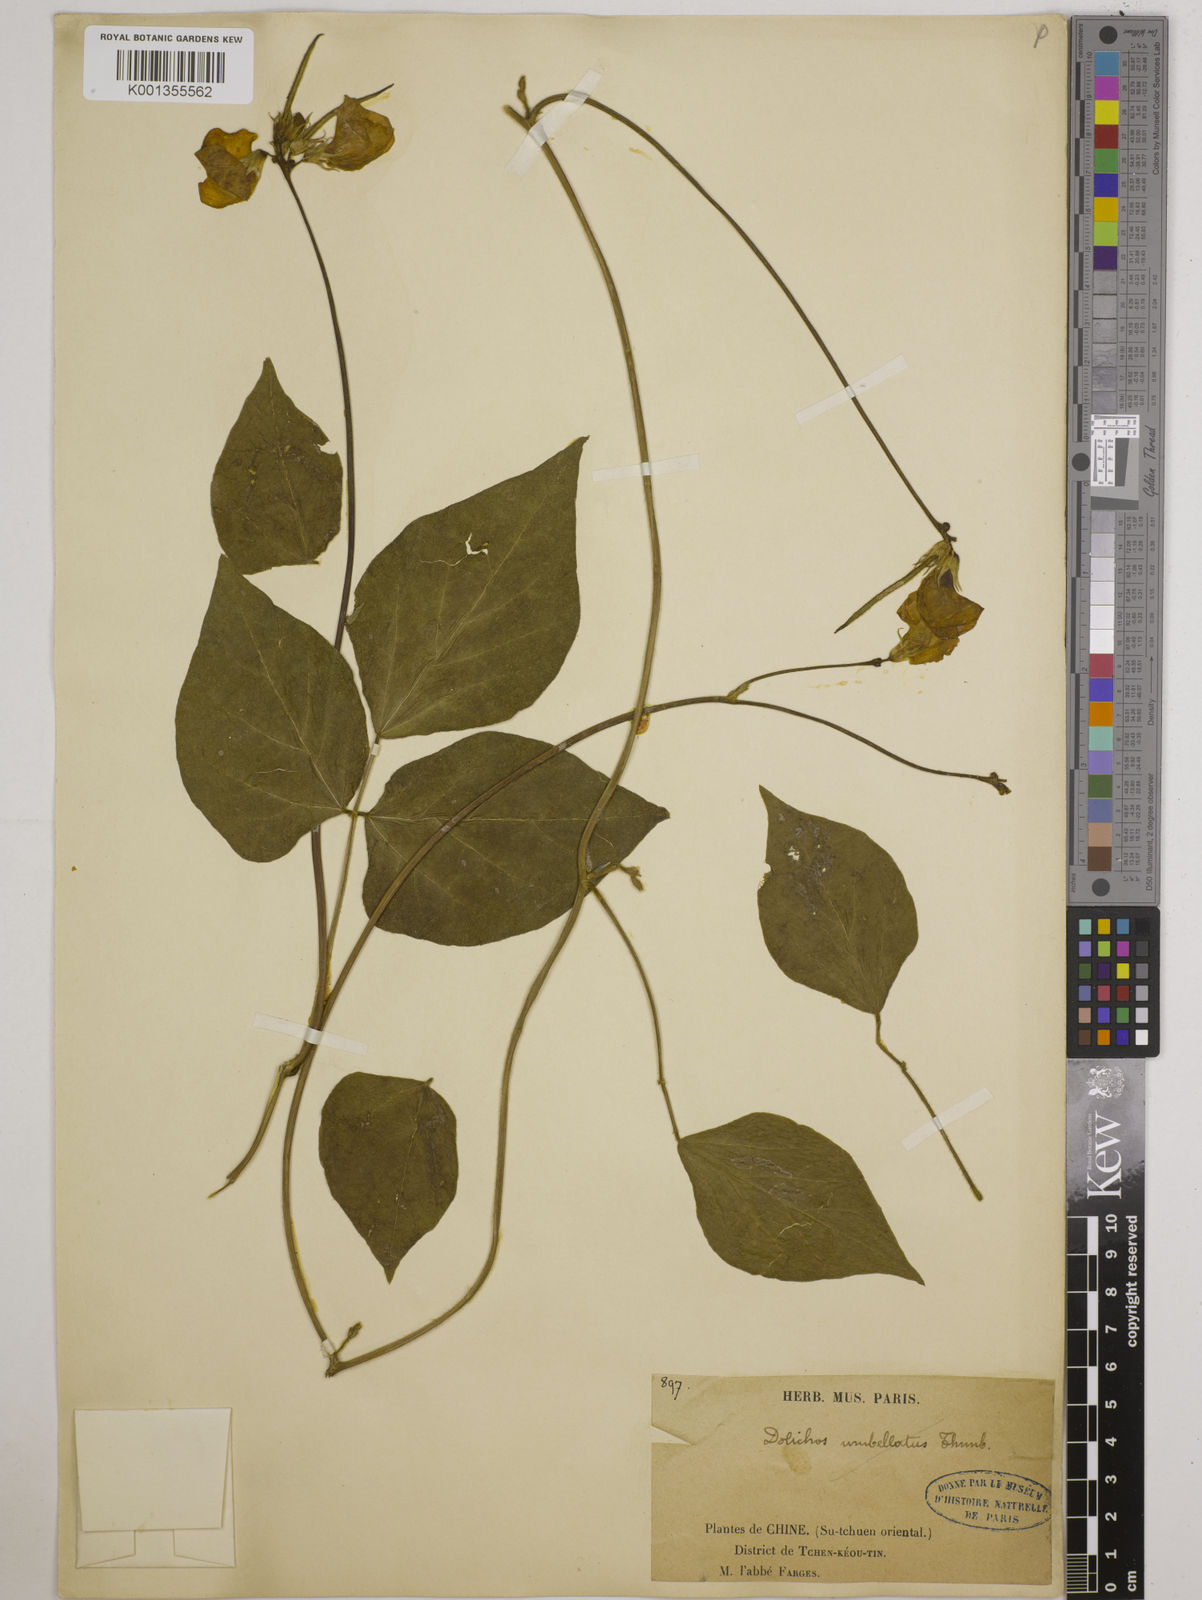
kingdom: Plantae
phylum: Tracheophyta
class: Magnoliopsida
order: Fabales
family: Fabaceae
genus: Vigna
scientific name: Vigna vexillata
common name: Zombi pea
